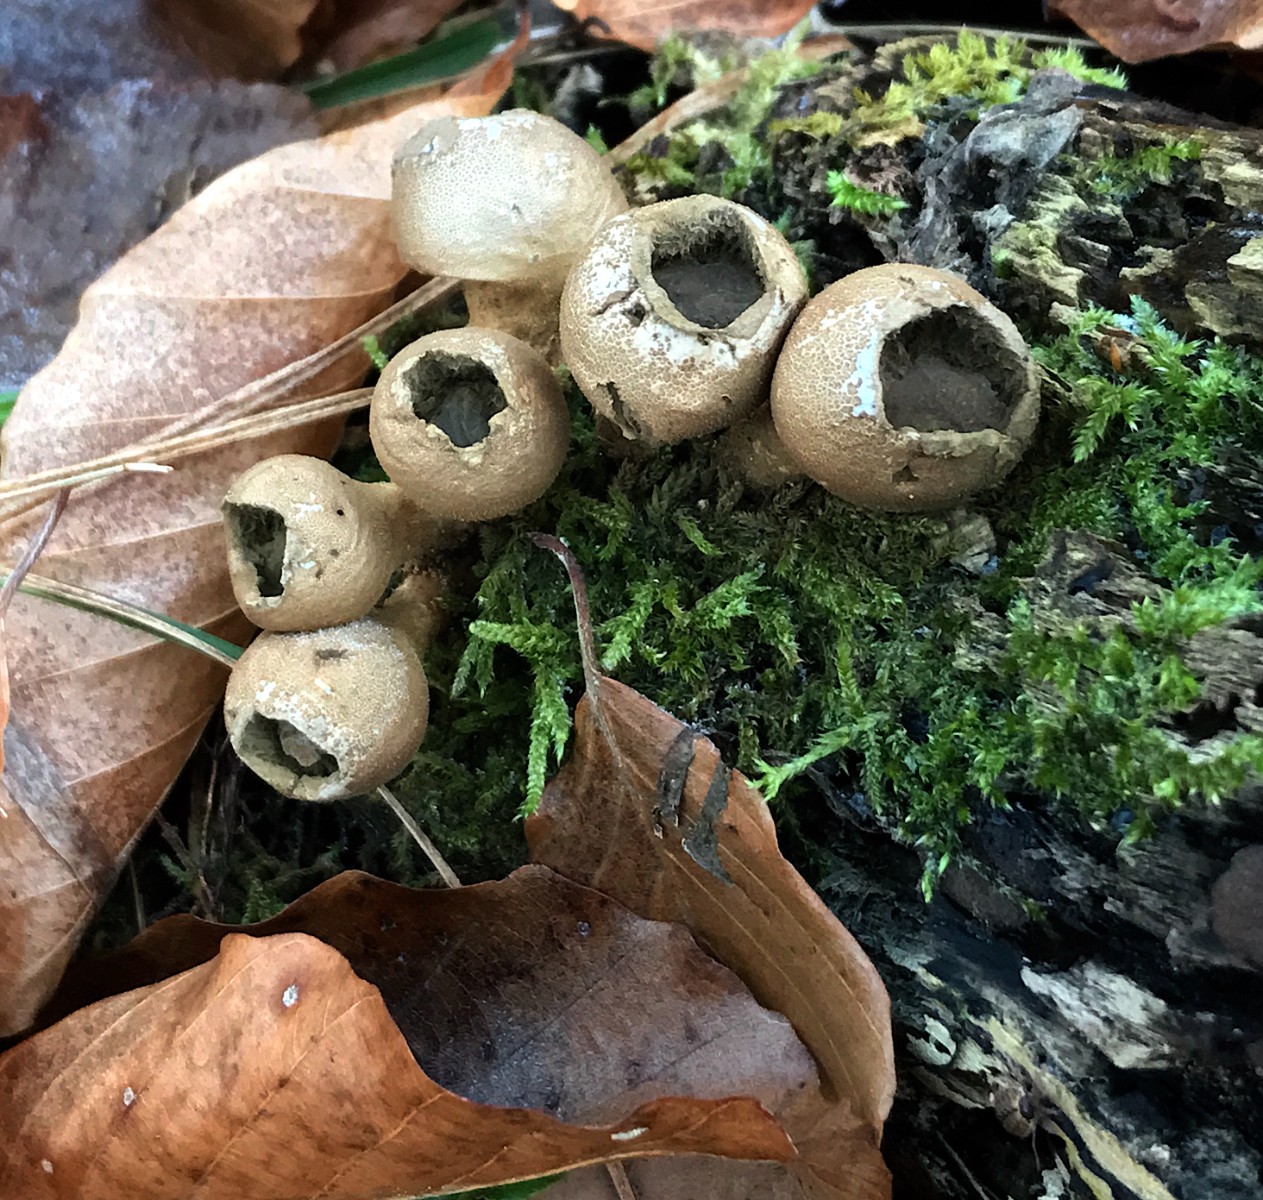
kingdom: Fungi
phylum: Basidiomycota
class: Agaricomycetes
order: Agaricales
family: Lycoperdaceae
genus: Apioperdon
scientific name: Apioperdon pyriforme
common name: pære-støvbold
